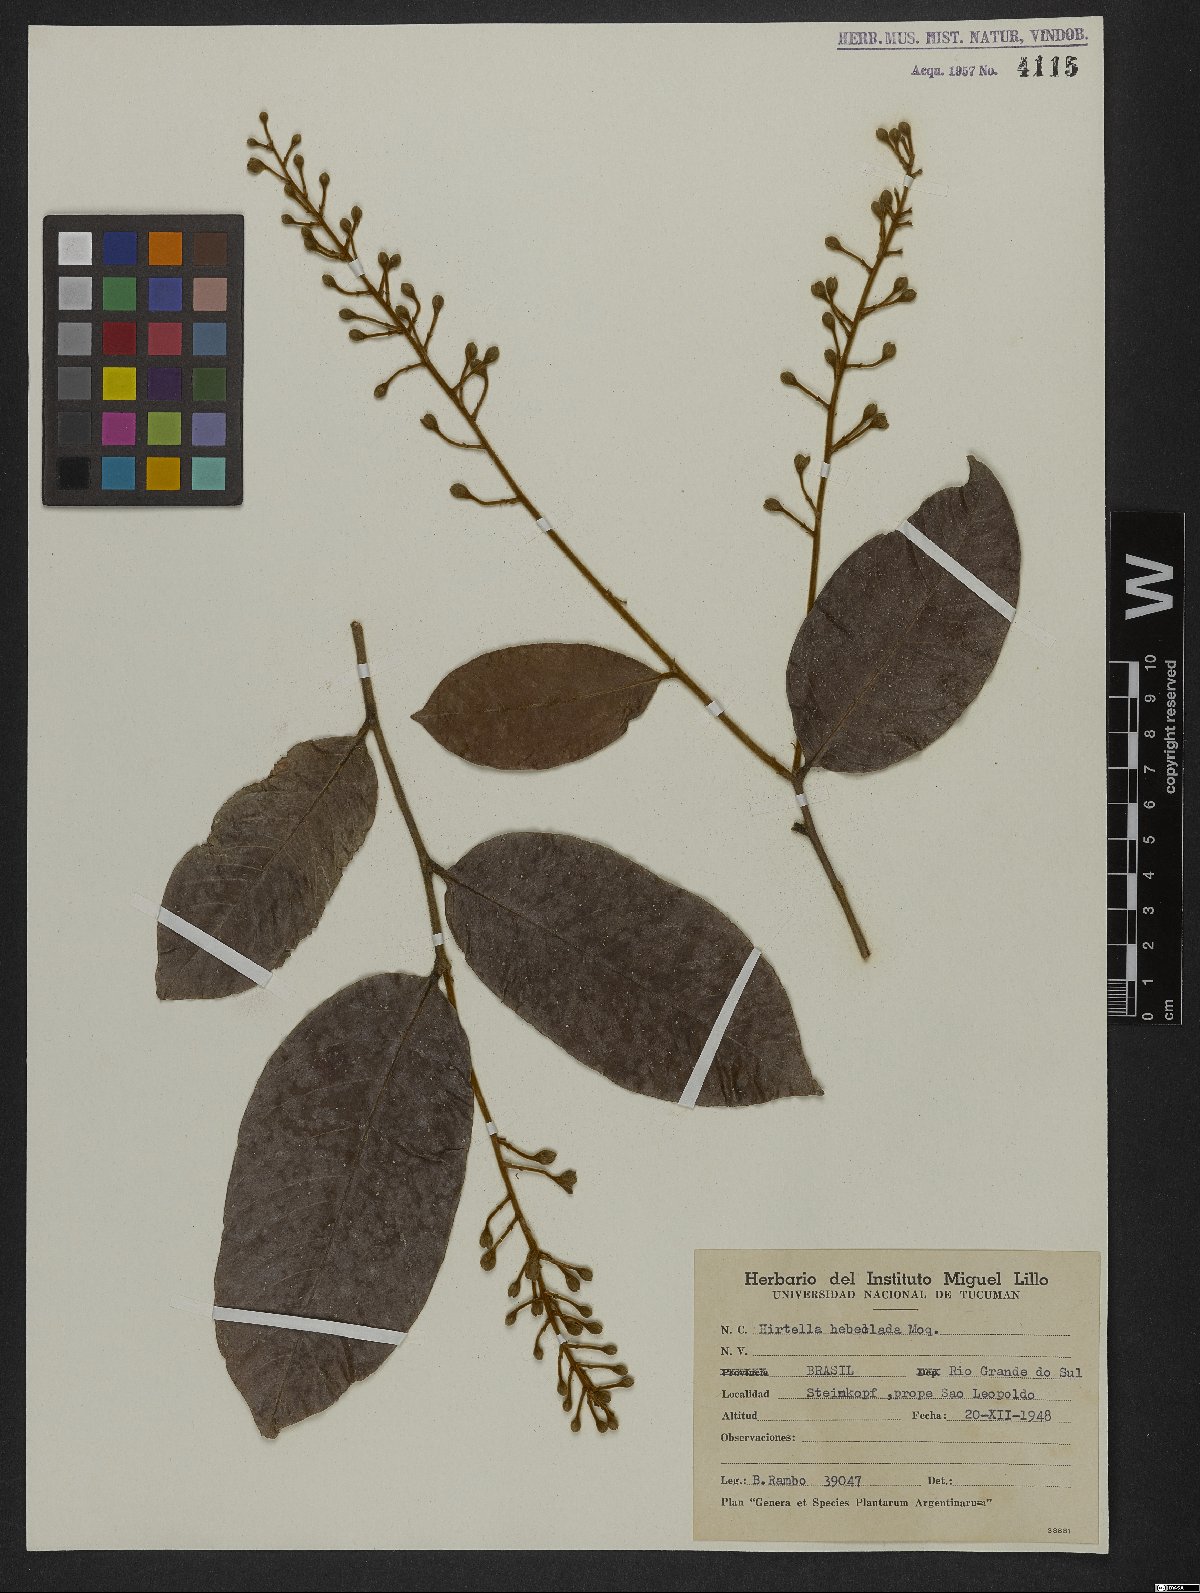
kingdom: Plantae
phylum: Tracheophyta
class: Magnoliopsida
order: Malpighiales
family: Chrysobalanaceae
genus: Hirtella
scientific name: Hirtella hebeclada
